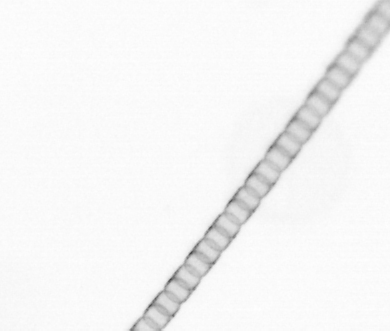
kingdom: Chromista
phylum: Ochrophyta
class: Bacillariophyceae
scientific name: Bacillariophyceae
